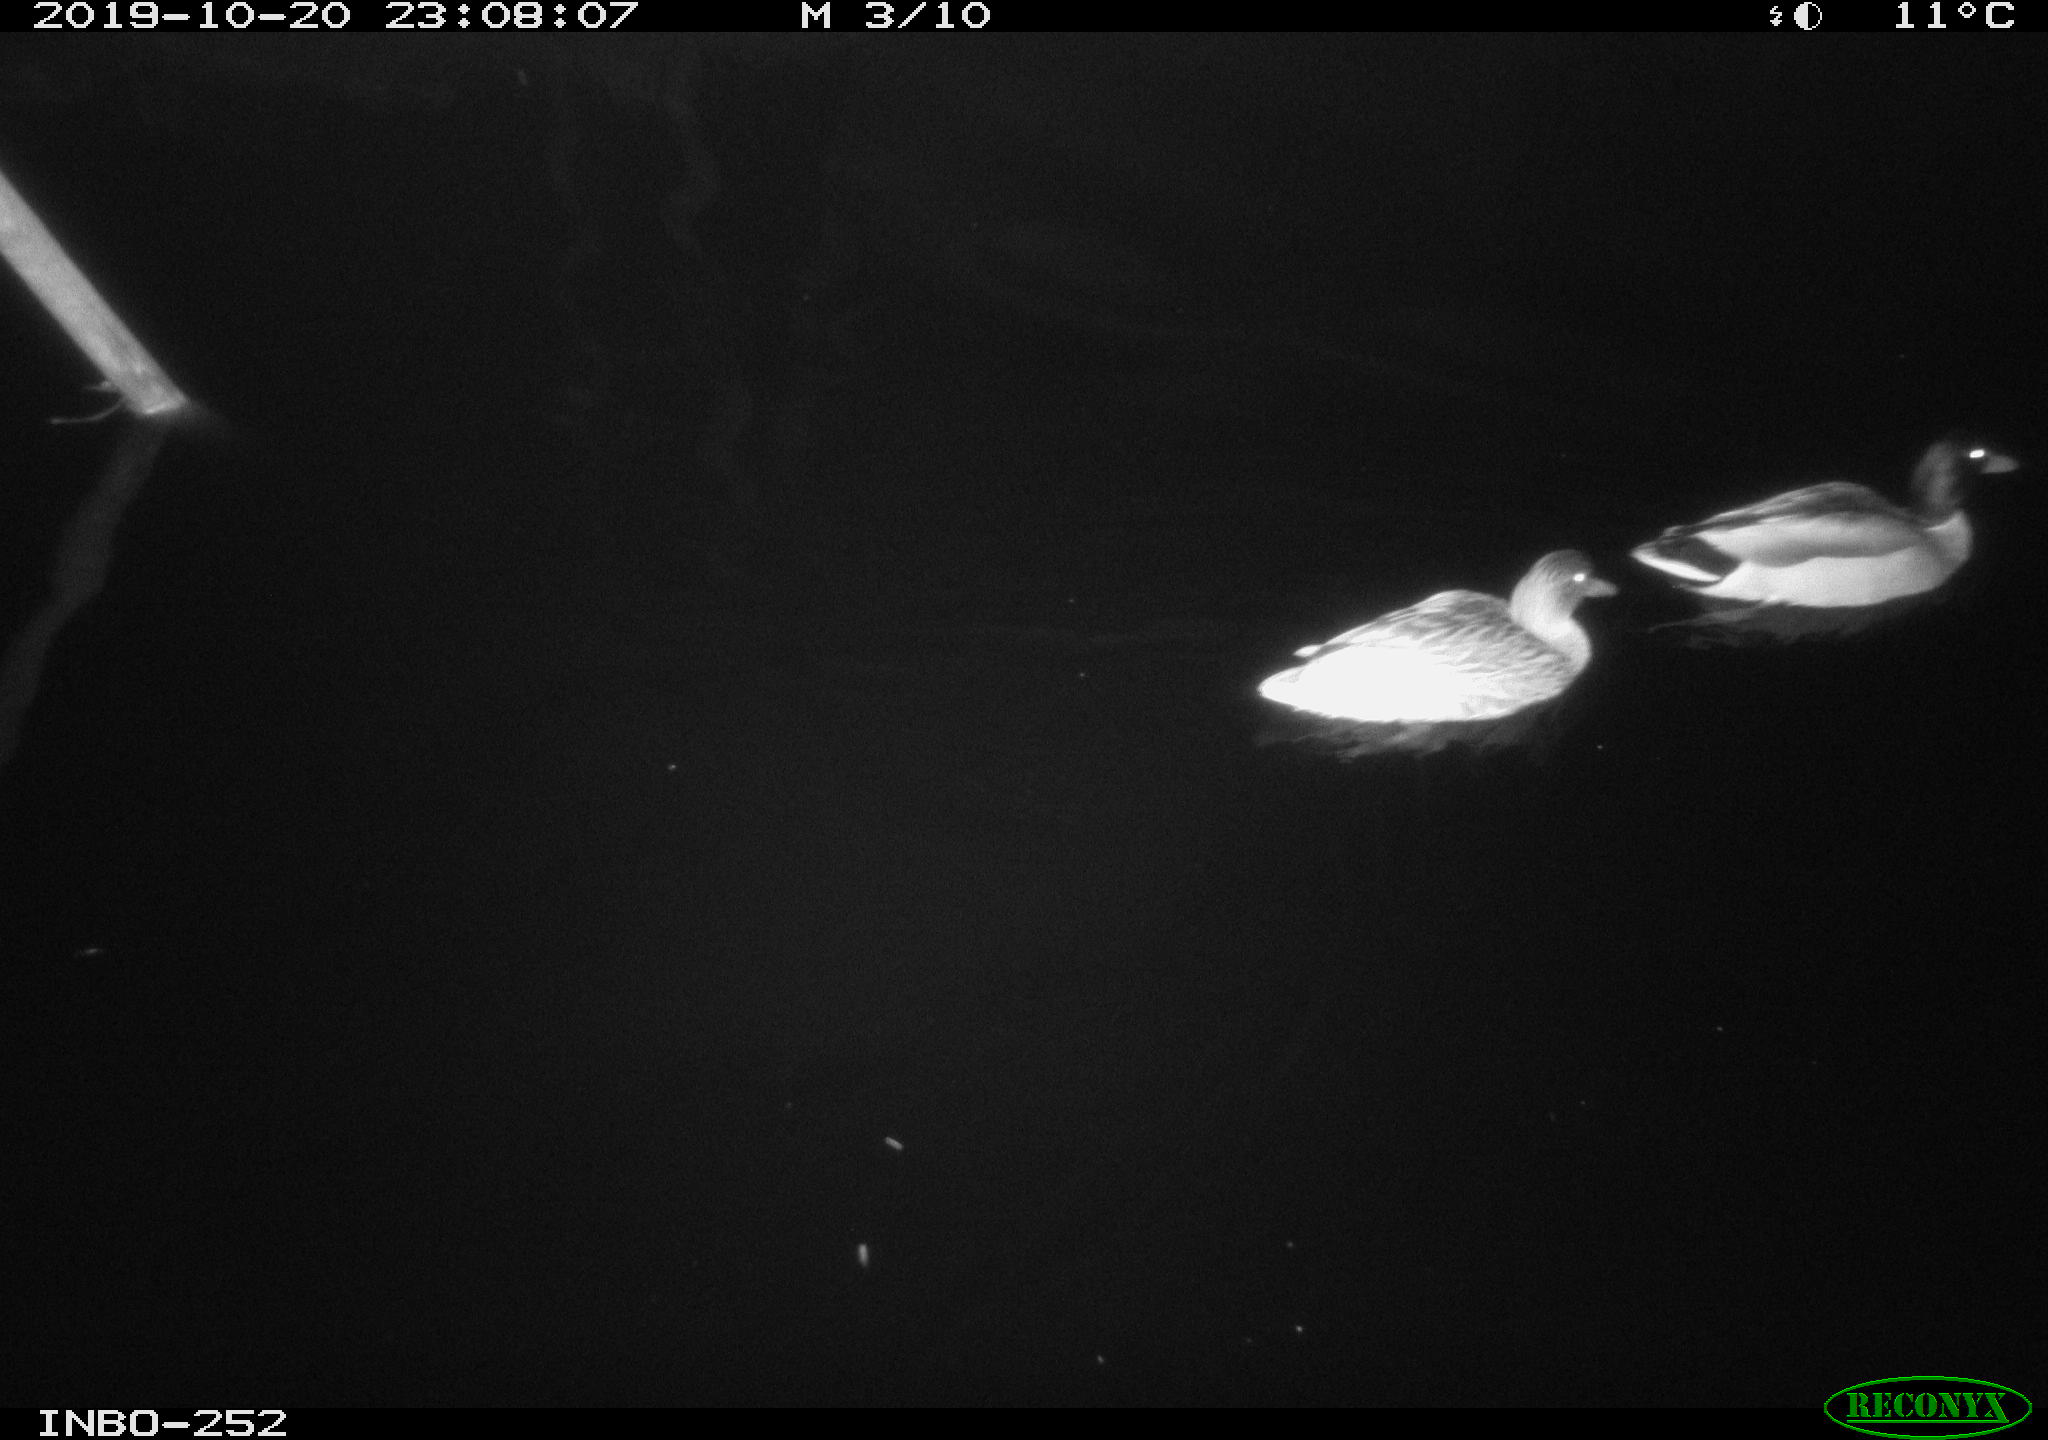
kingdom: Animalia
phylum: Chordata
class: Aves
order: Anseriformes
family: Anatidae
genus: Anas
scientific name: Anas platyrhynchos
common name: Mallard
